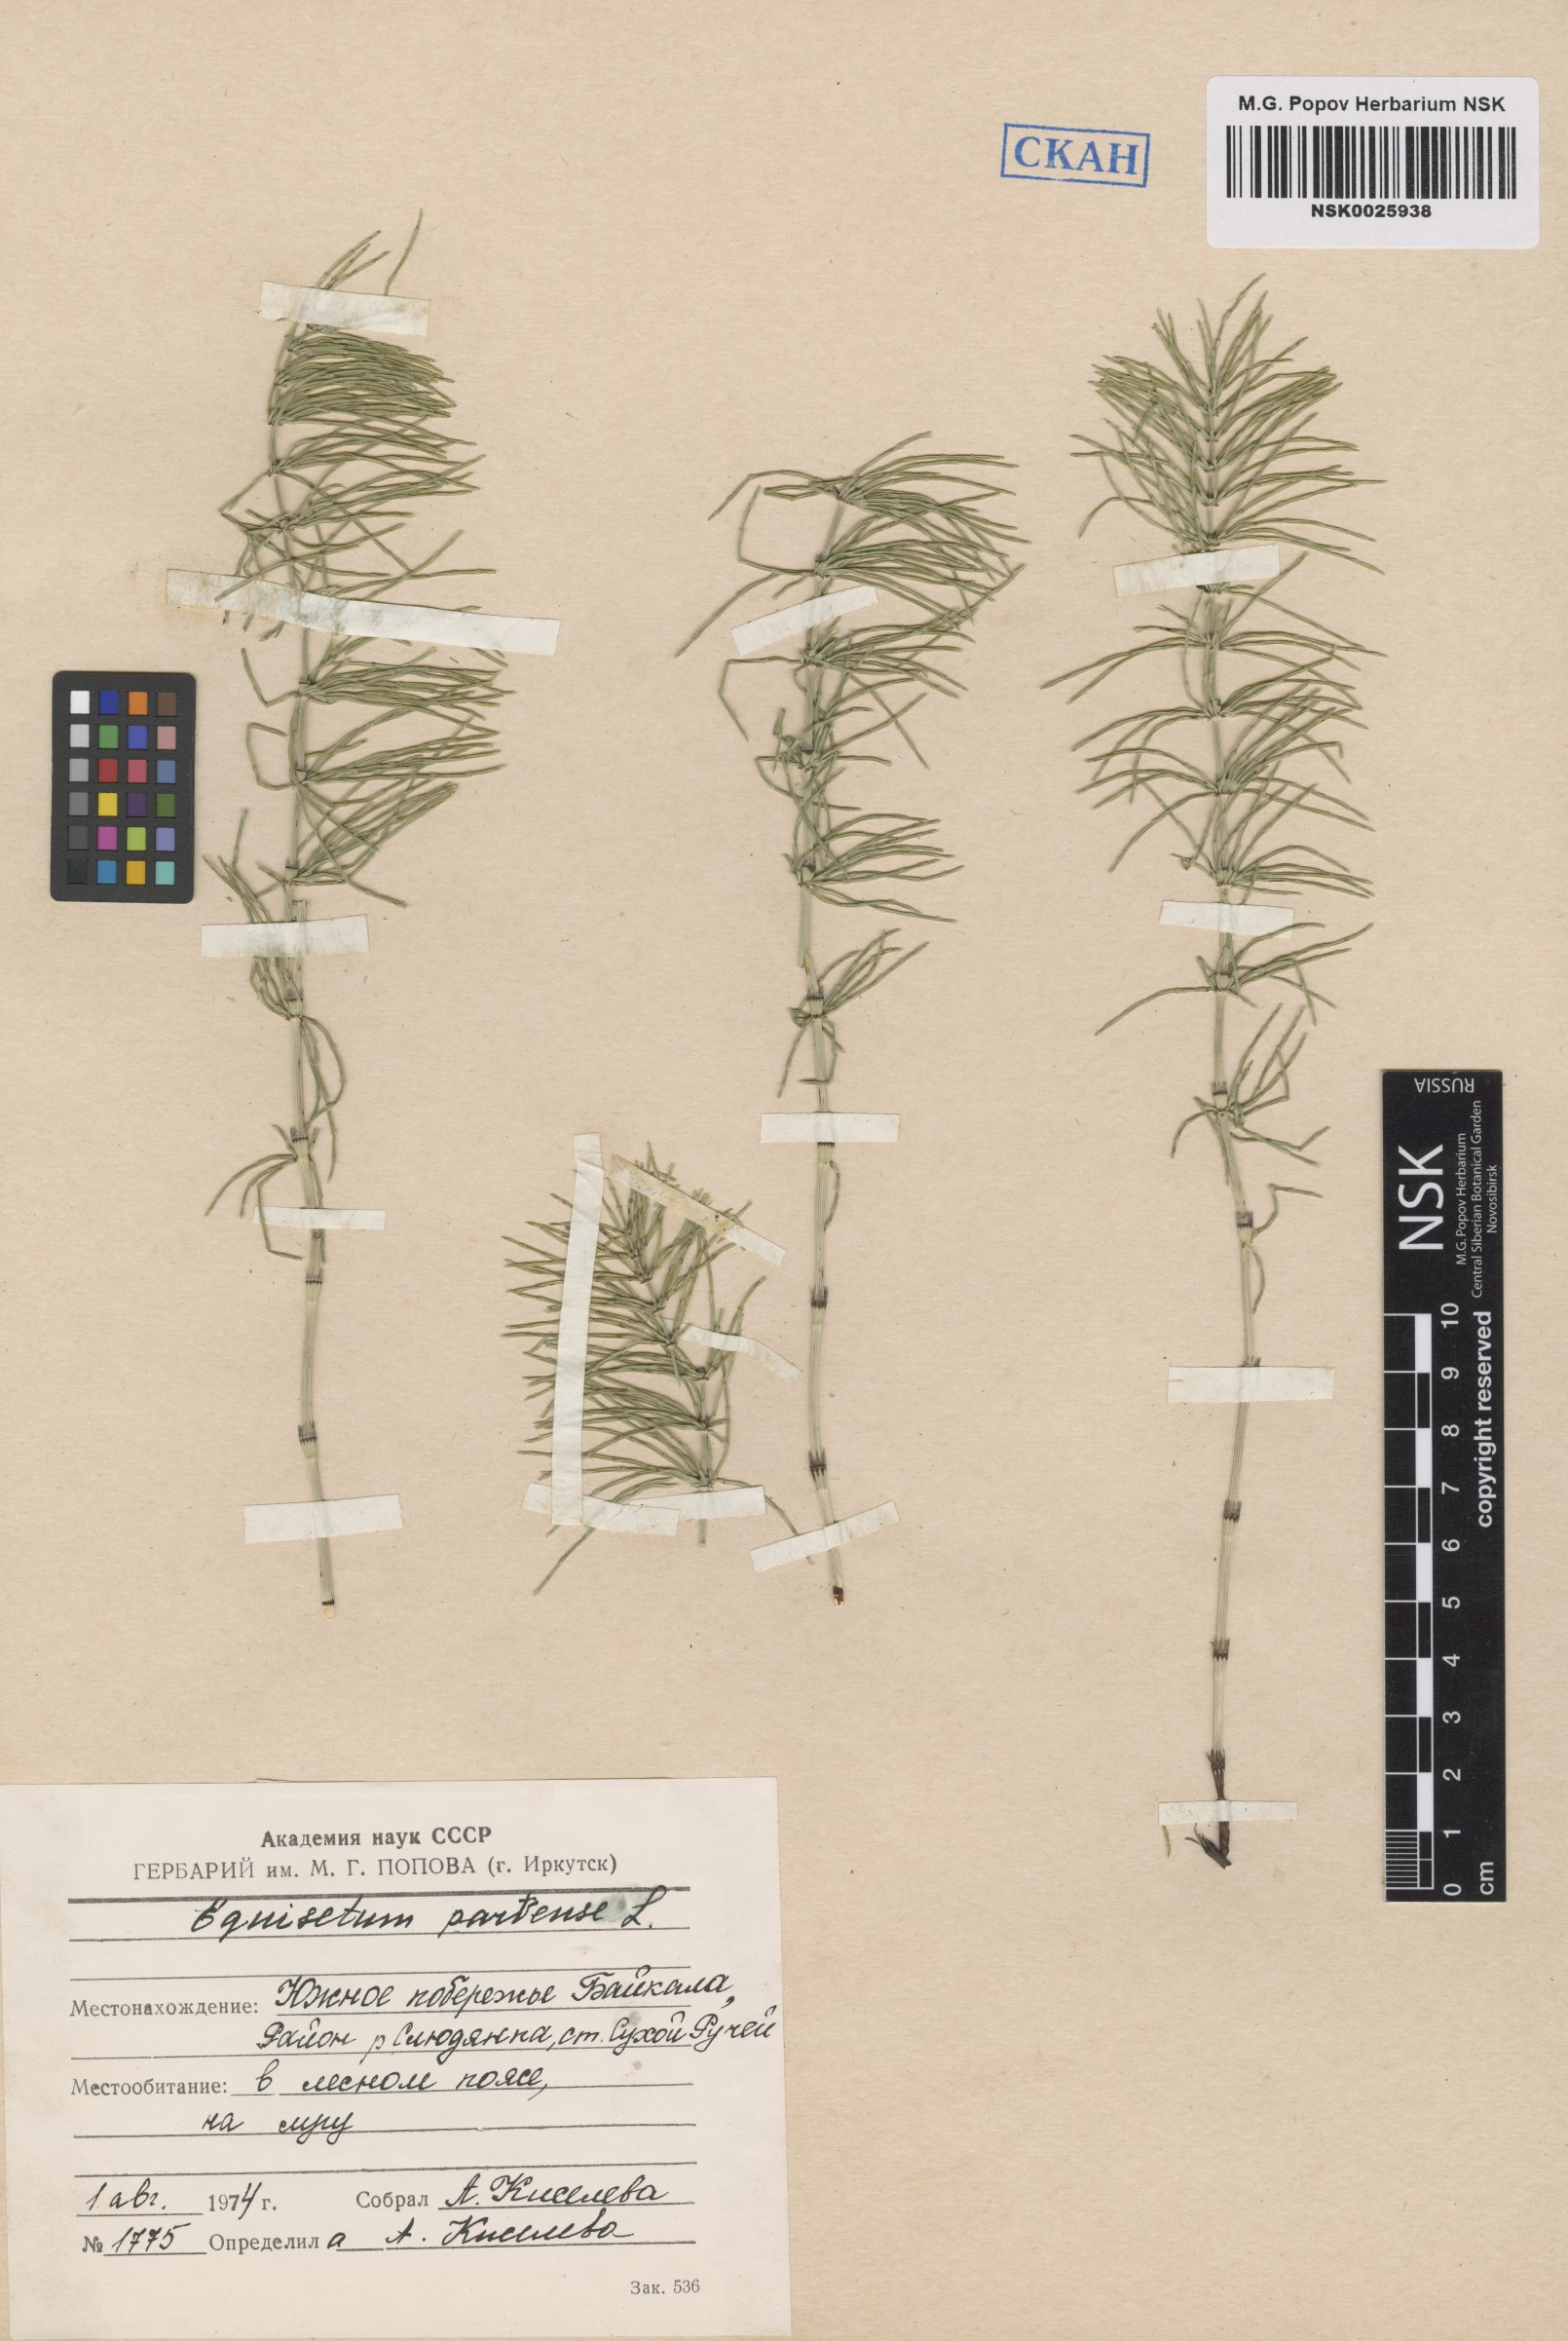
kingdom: Plantae
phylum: Tracheophyta
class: Polypodiopsida
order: Equisetales
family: Equisetaceae
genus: Equisetum
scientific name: Equisetum pratense
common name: Meadow horsetail
